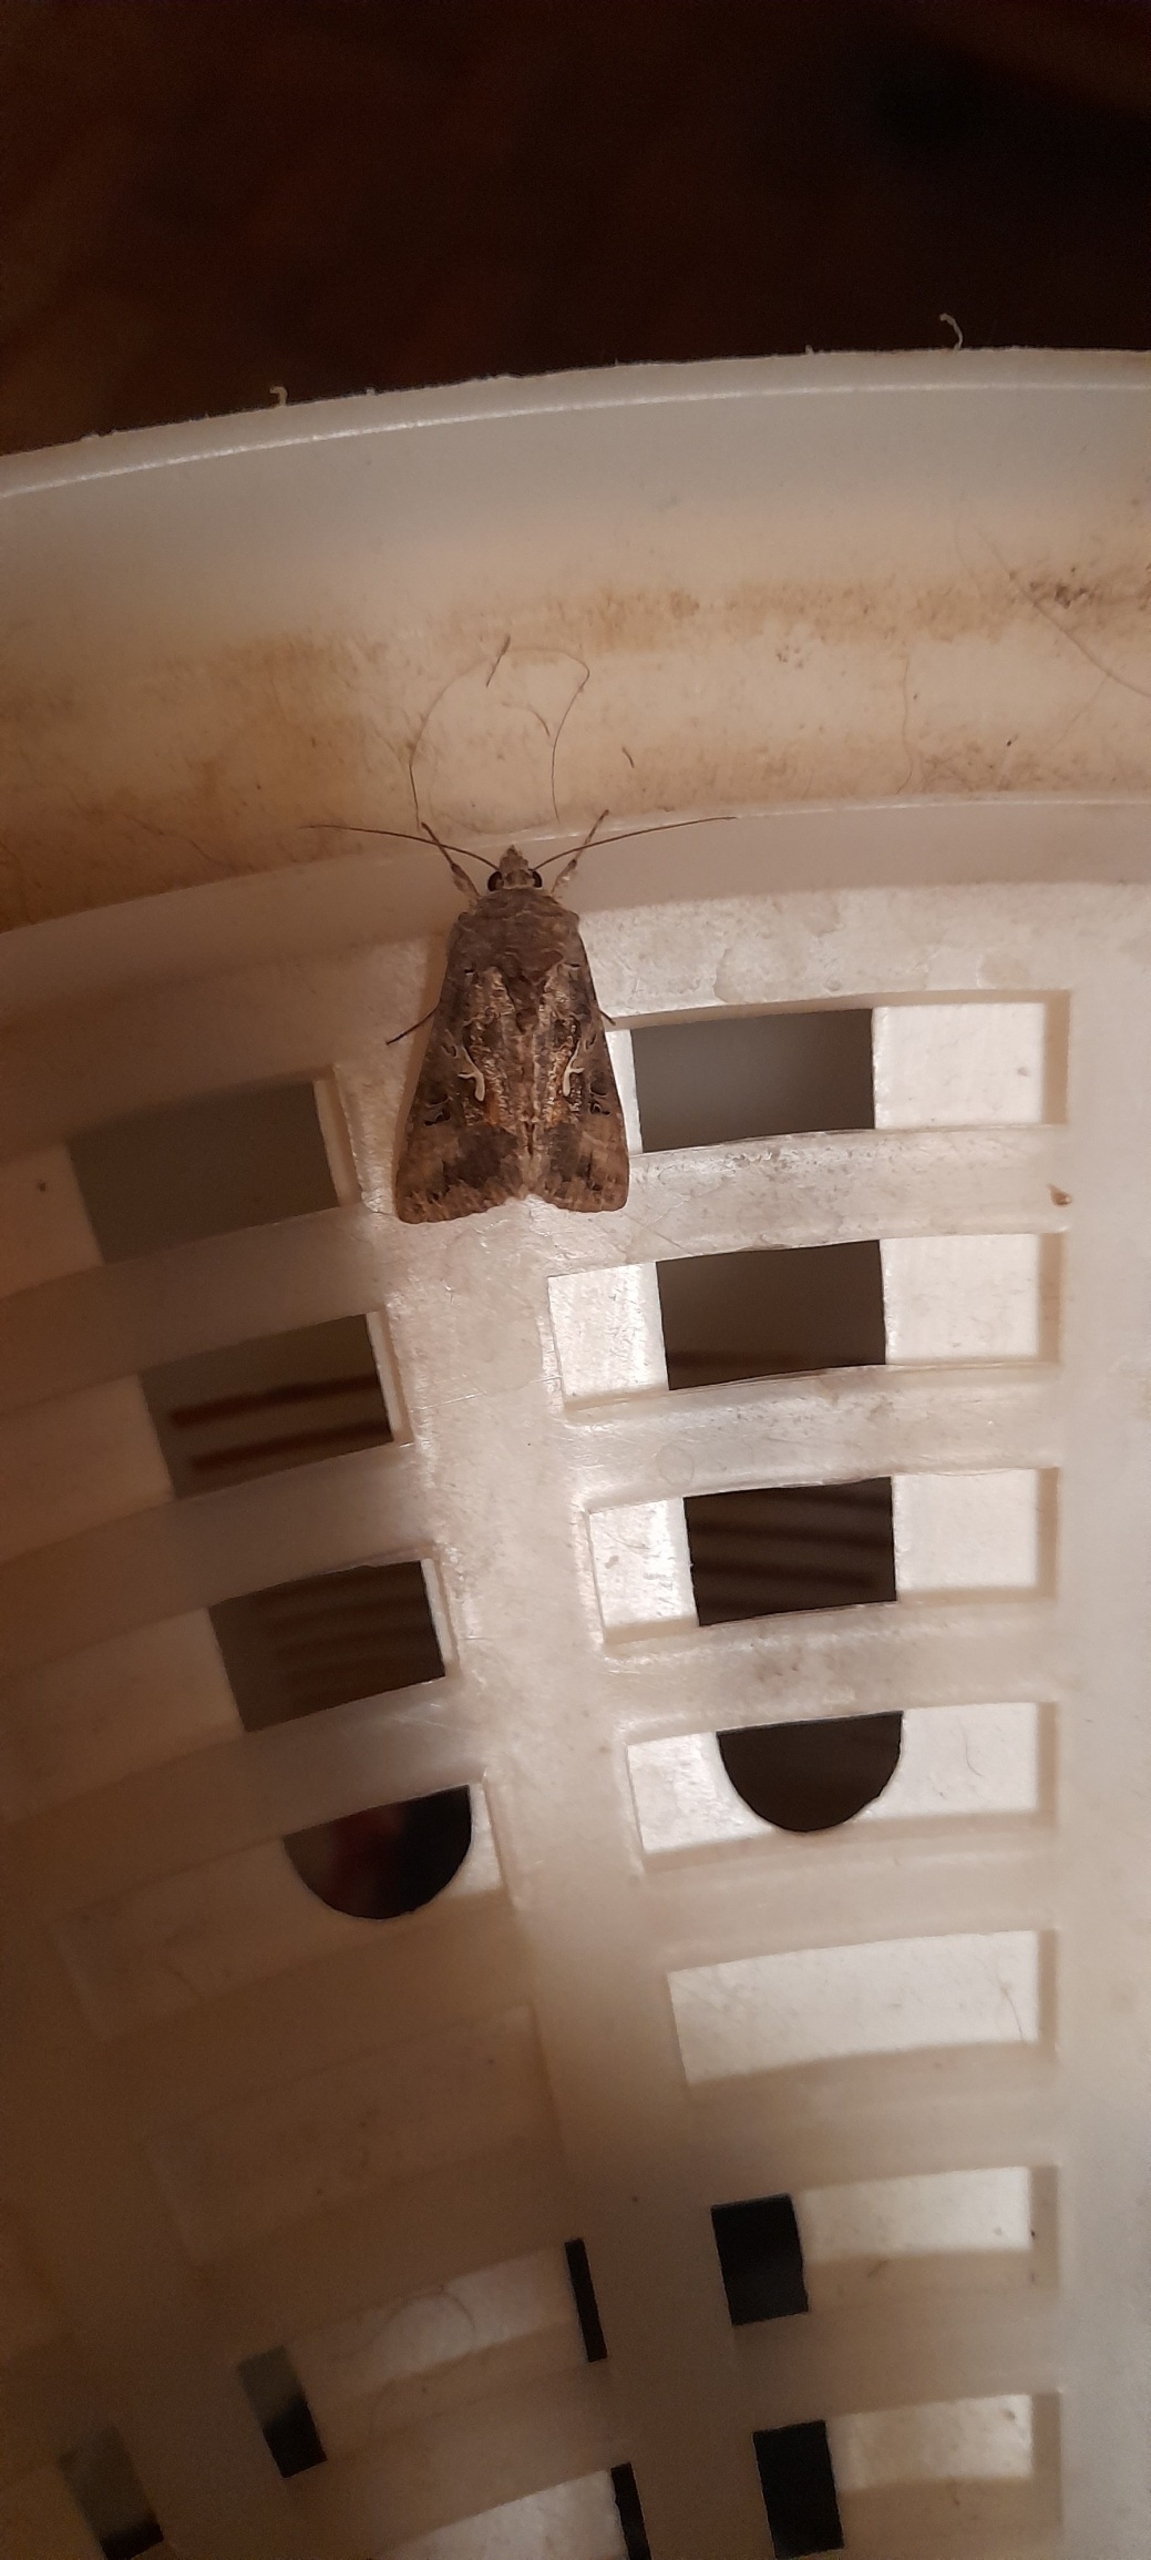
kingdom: Animalia
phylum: Arthropoda
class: Insecta
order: Lepidoptera
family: Noctuidae
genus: Autographa
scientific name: Autographa gamma
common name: Gammaugle
